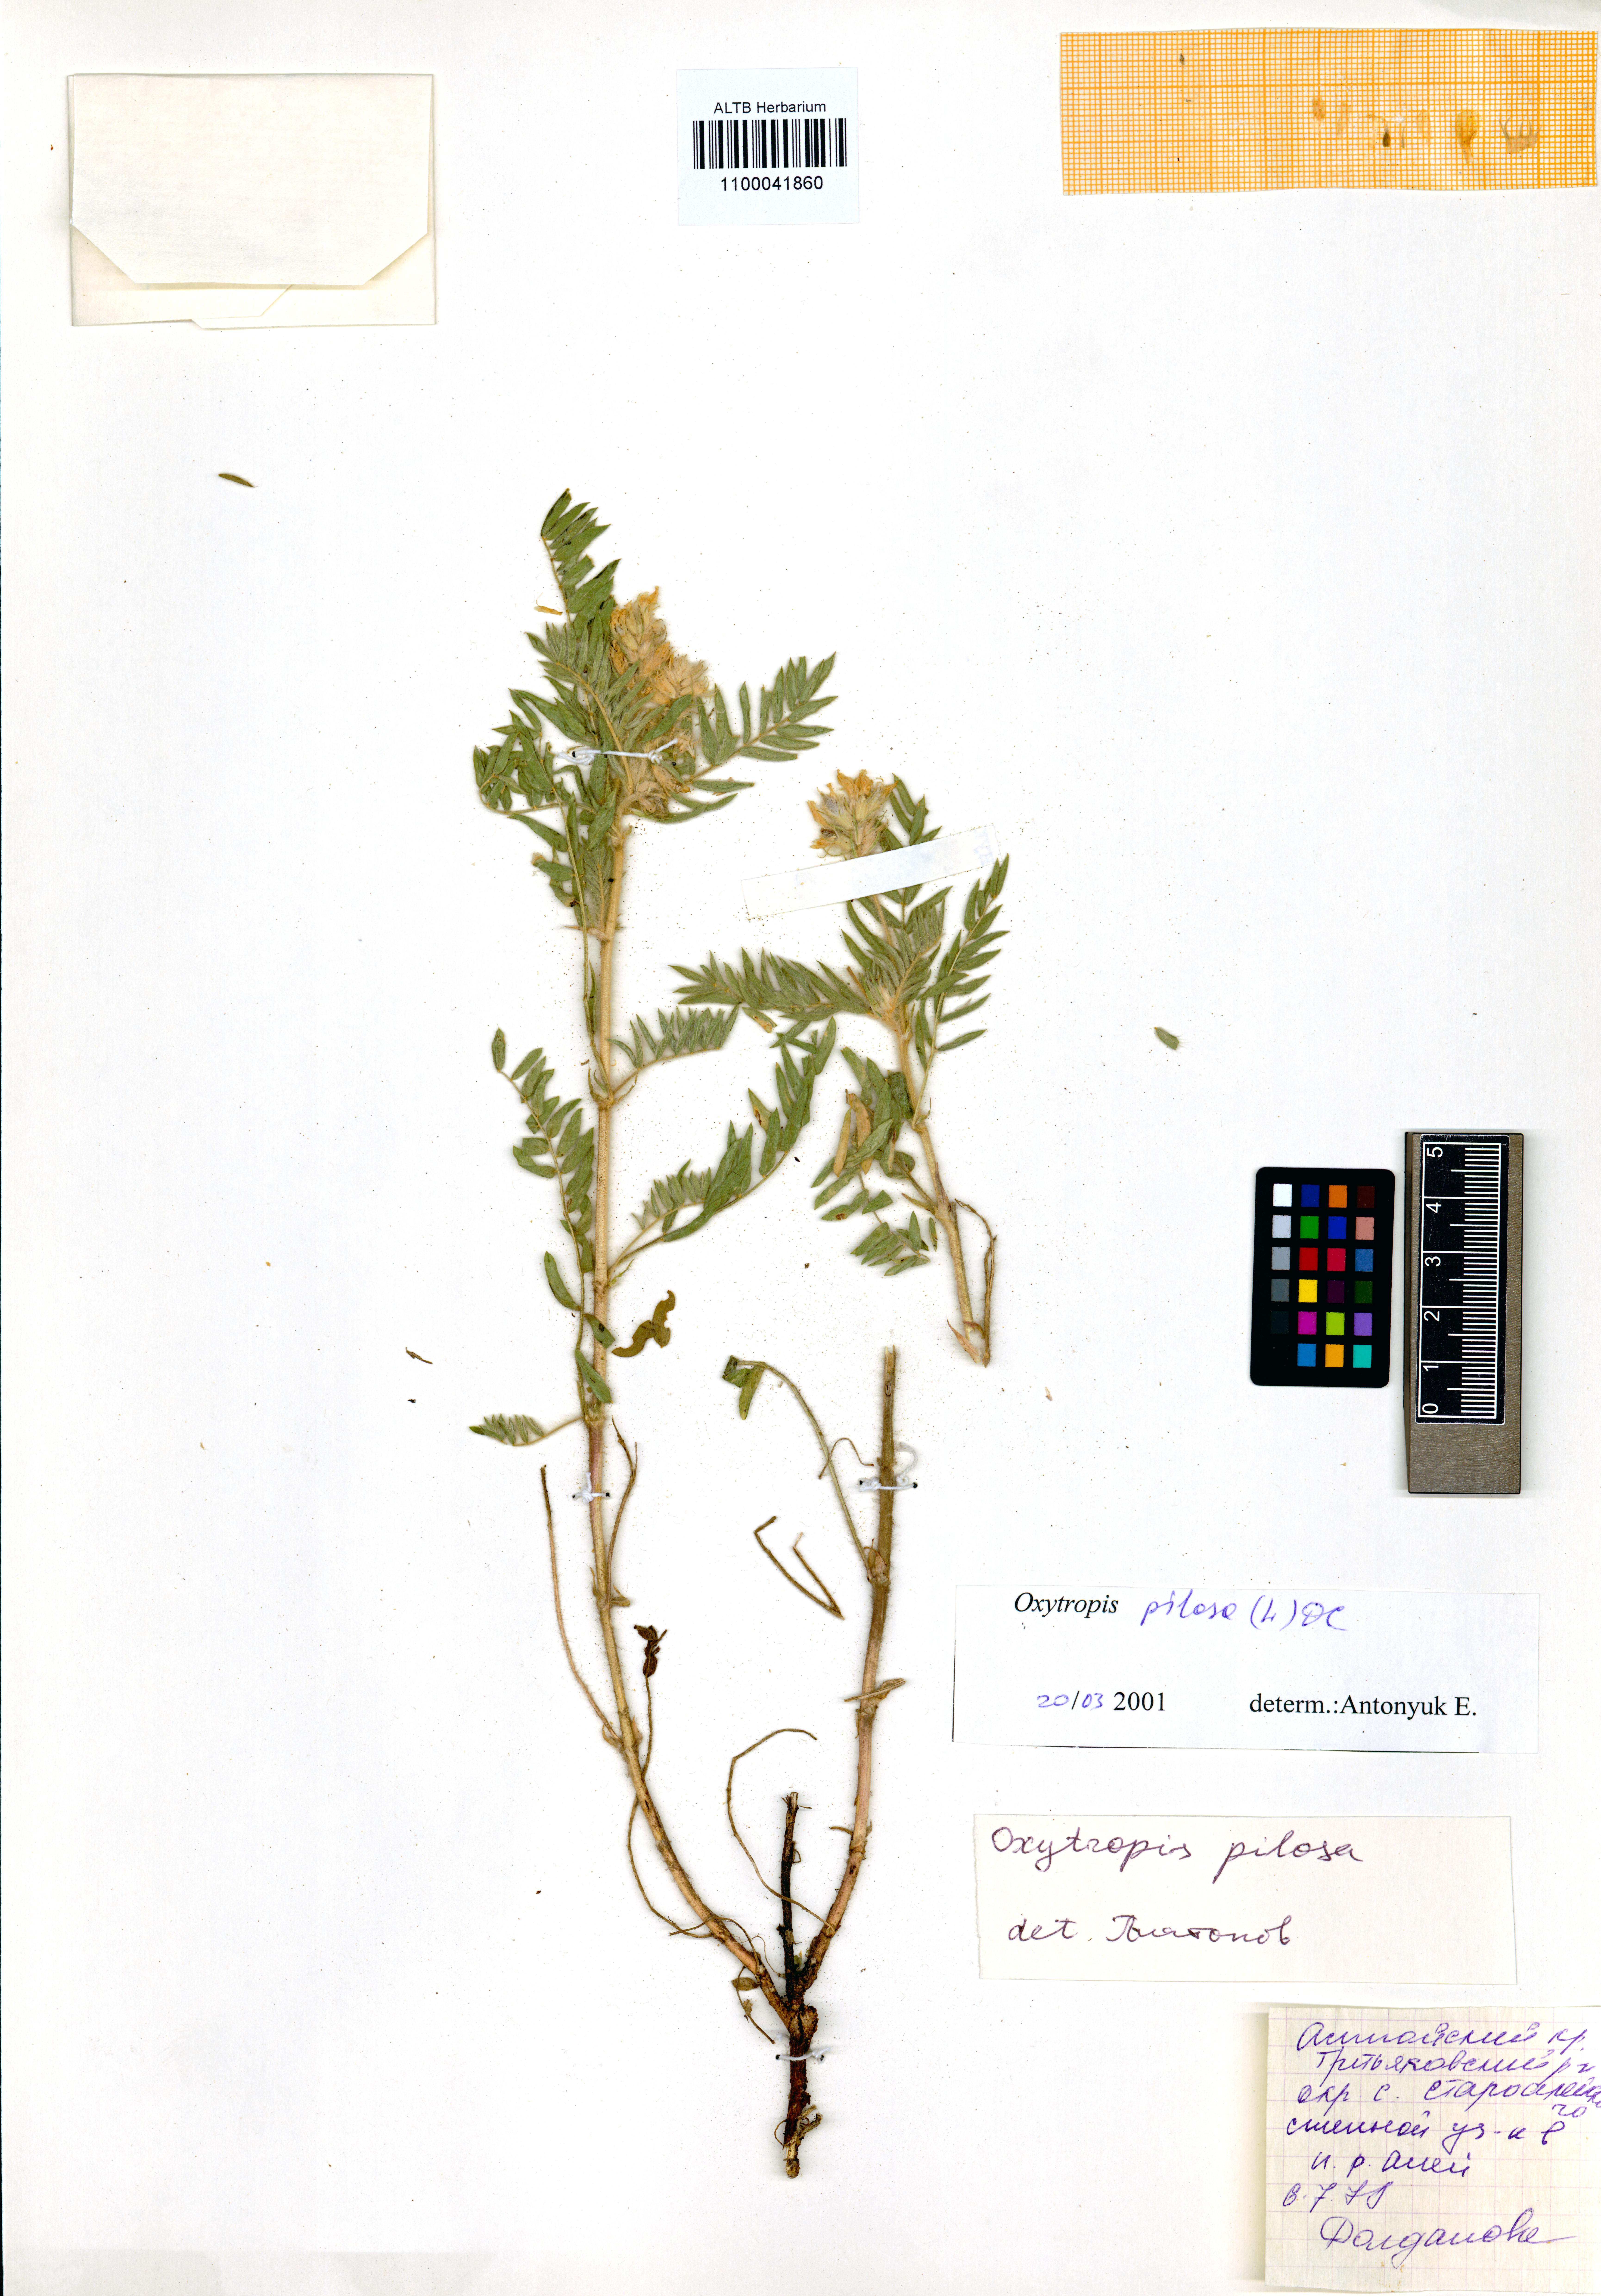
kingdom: Plantae
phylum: Tracheophyta
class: Magnoliopsida
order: Fabales
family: Fabaceae
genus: Oxytropis
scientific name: Oxytropis pilosa
